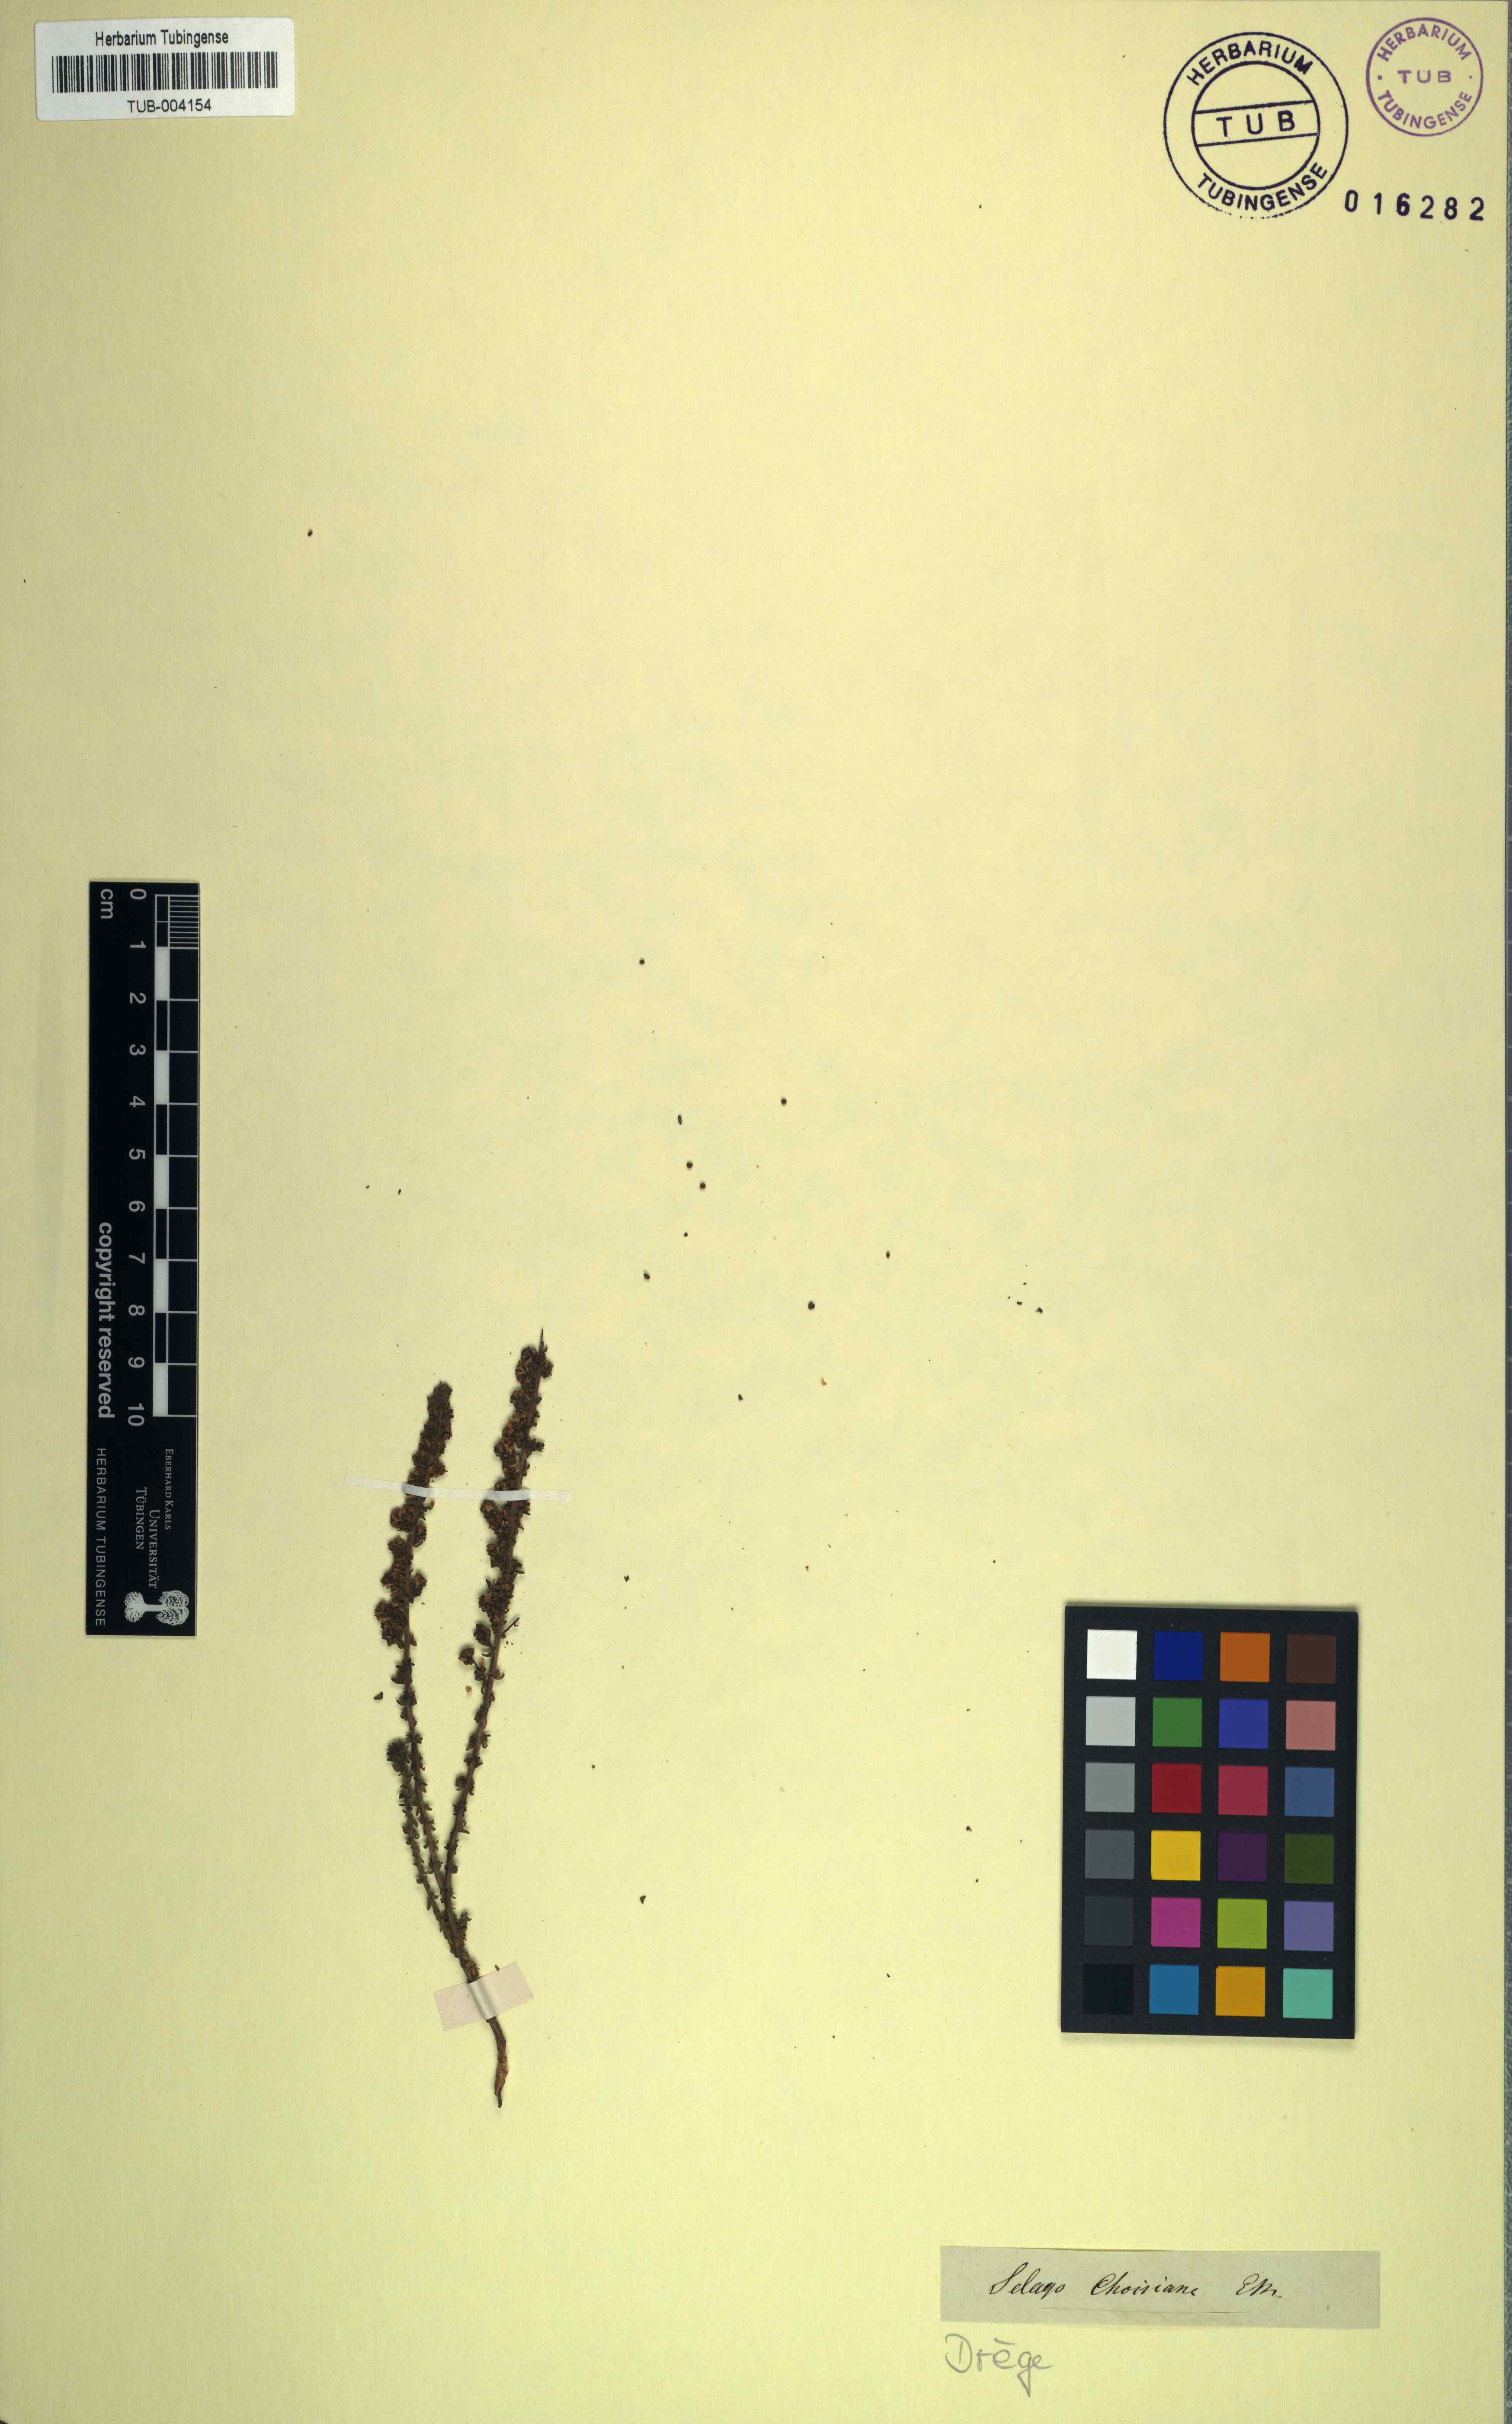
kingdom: Plantae
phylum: Tracheophyta
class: Magnoliopsida
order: Lamiales
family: Scrophulariaceae
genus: Selago
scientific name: Selago paniculata
